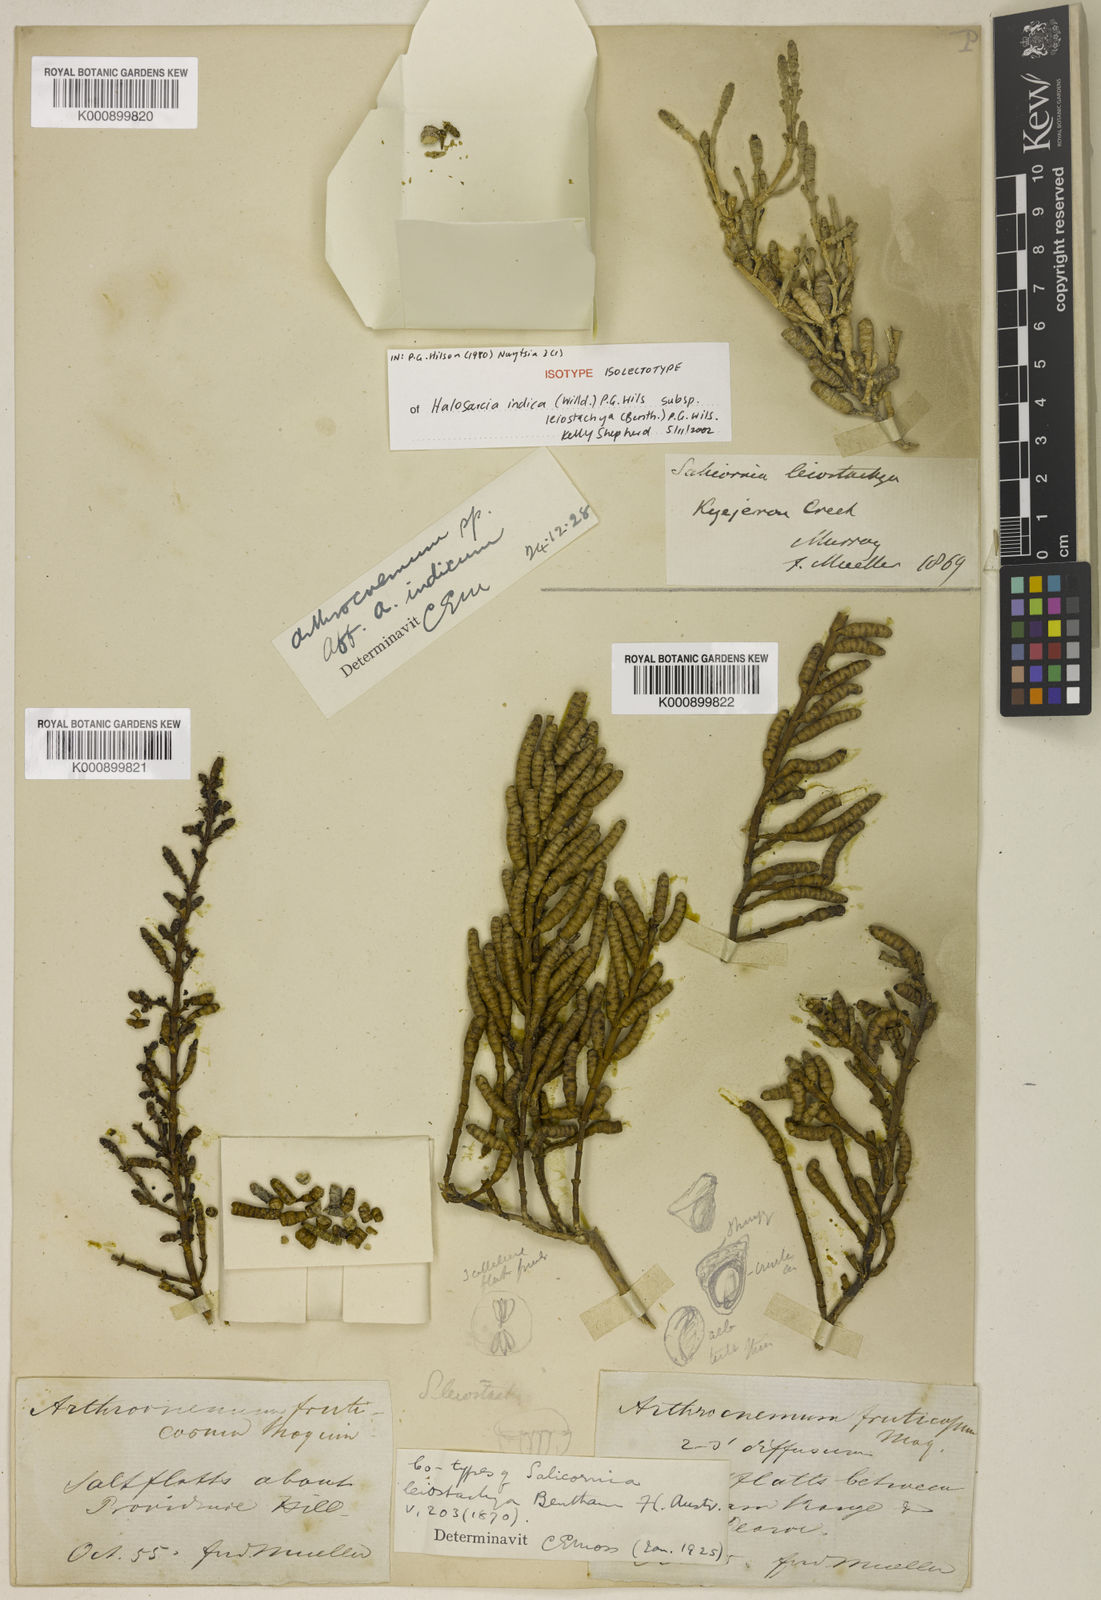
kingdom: Plantae
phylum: Tracheophyta
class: Magnoliopsida
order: Caryophyllales
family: Amaranthaceae
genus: Tecticornia
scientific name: Tecticornia indica
